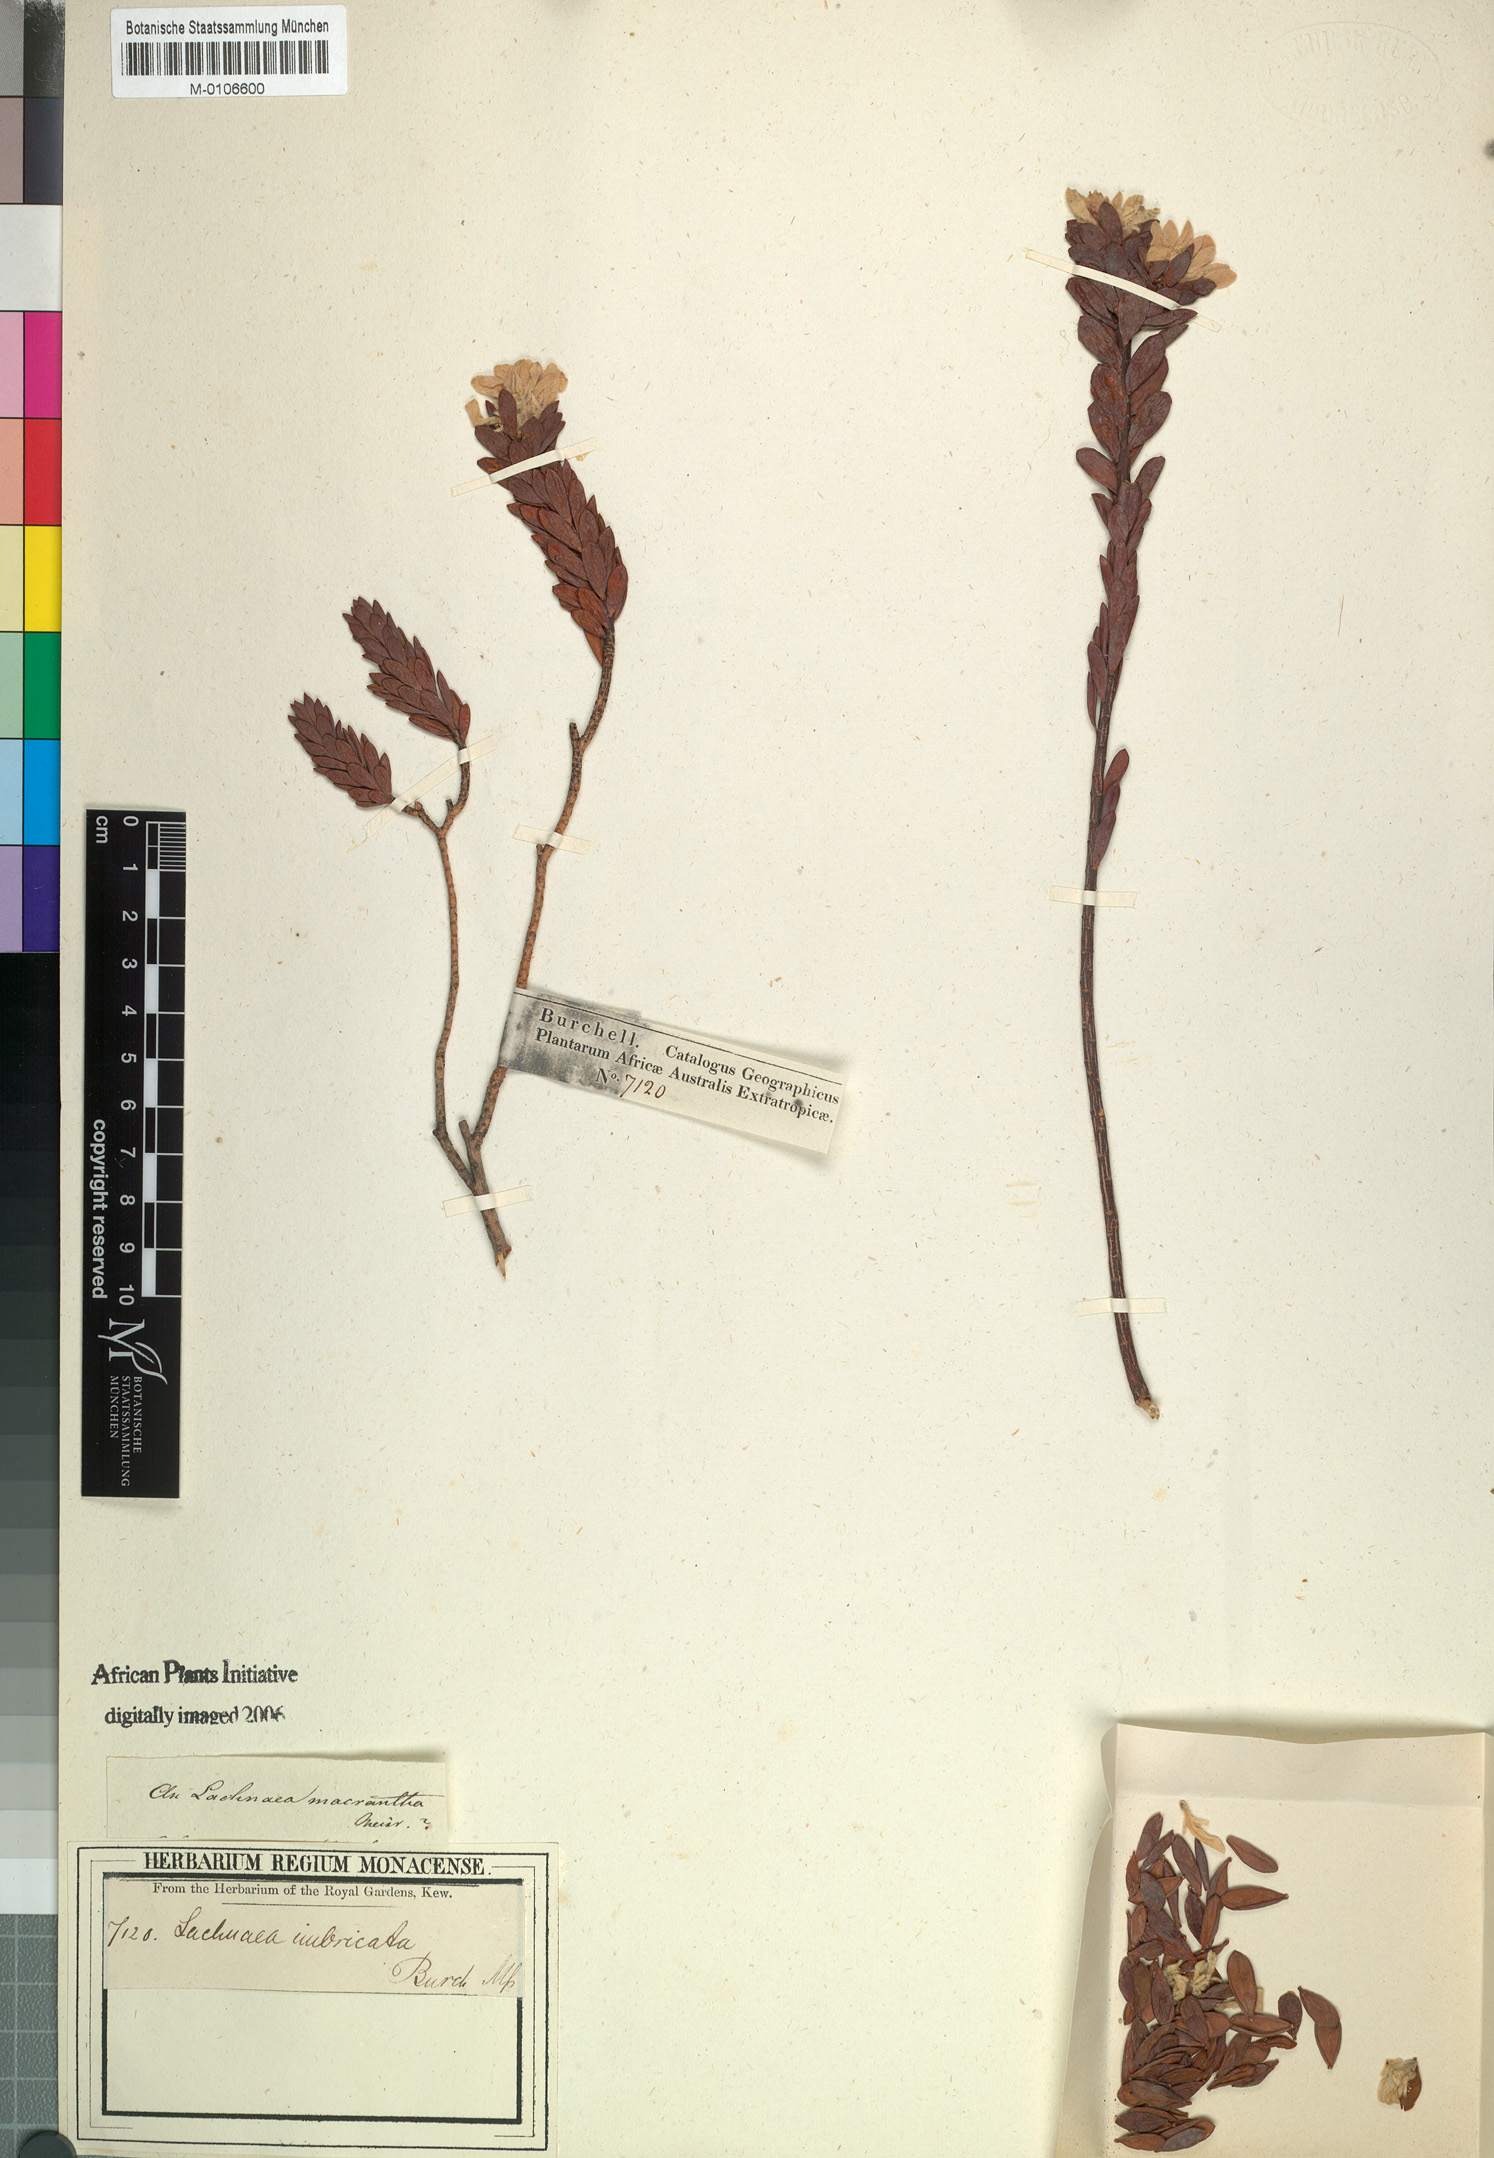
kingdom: Plantae
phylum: Tracheophyta
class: Magnoliopsida
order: Malvales
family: Thymelaeaceae
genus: Lachnaea
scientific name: Lachnaea macrantha
